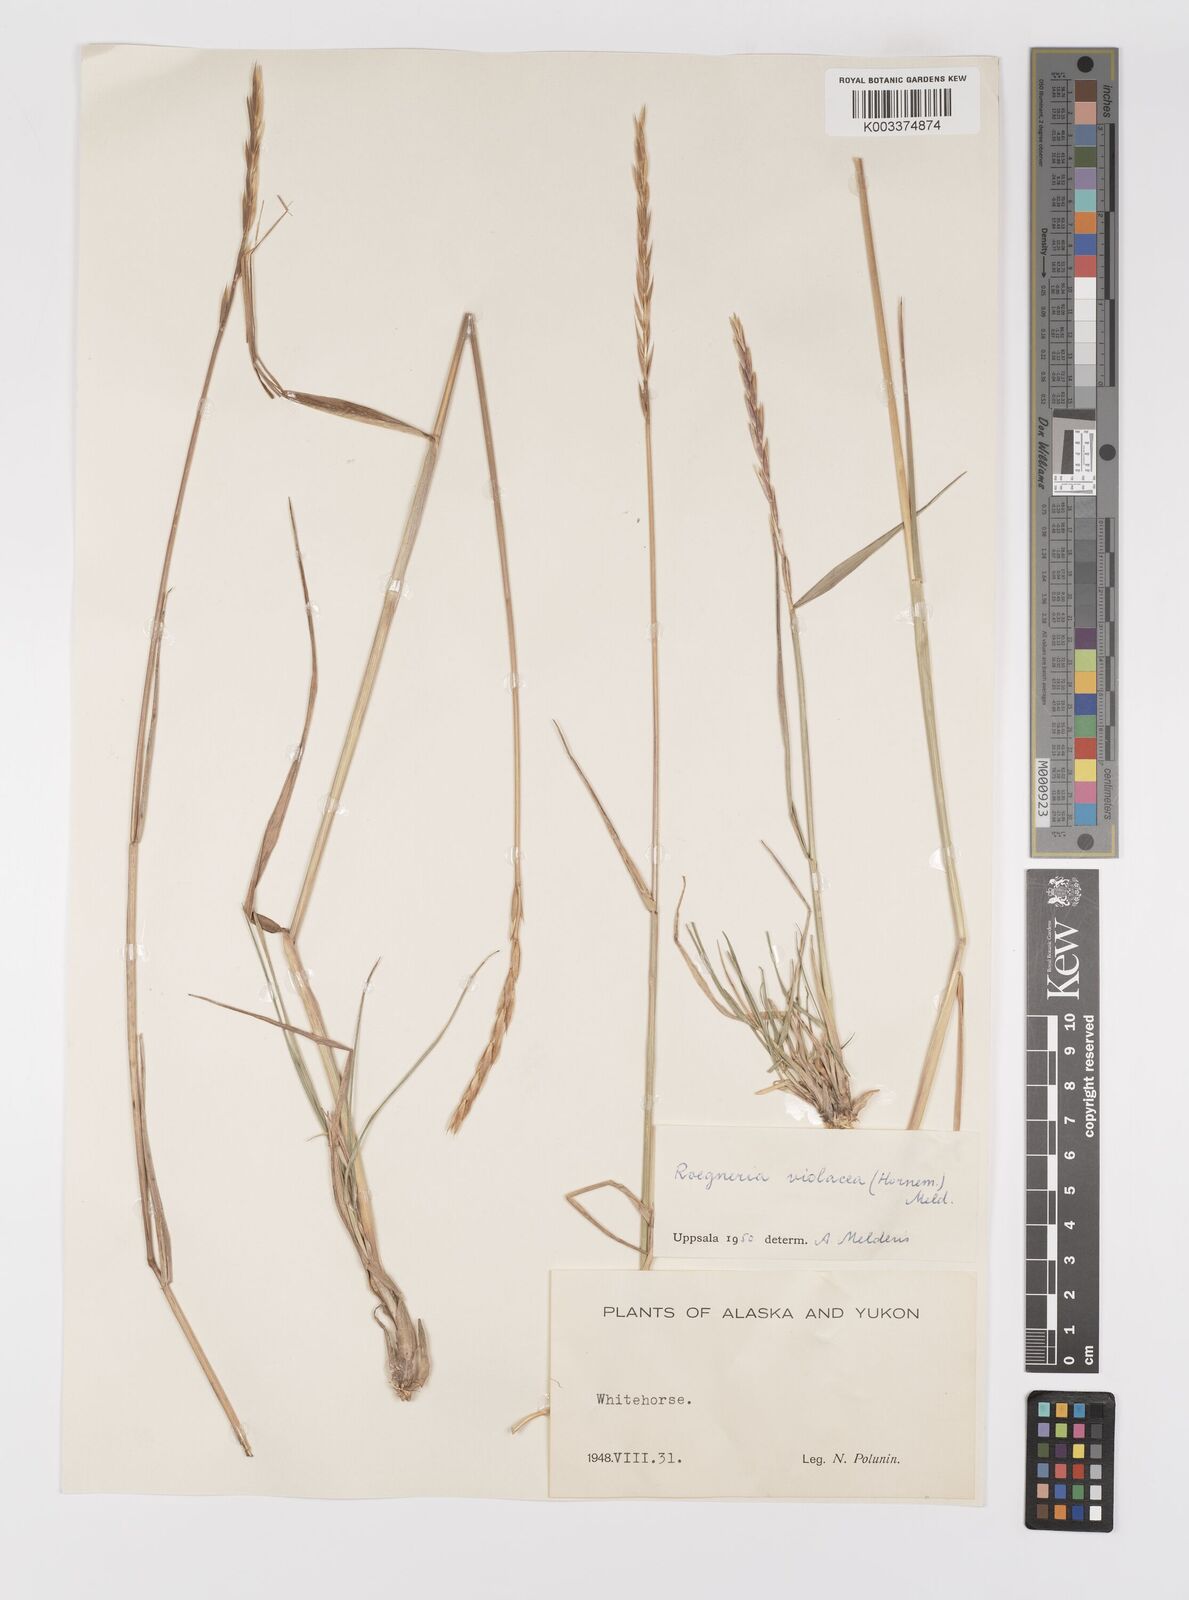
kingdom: Plantae
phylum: Tracheophyta
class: Liliopsida
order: Poales
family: Poaceae
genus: Elymus
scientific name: Elymus violaceus
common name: Arctic wheatgrass
